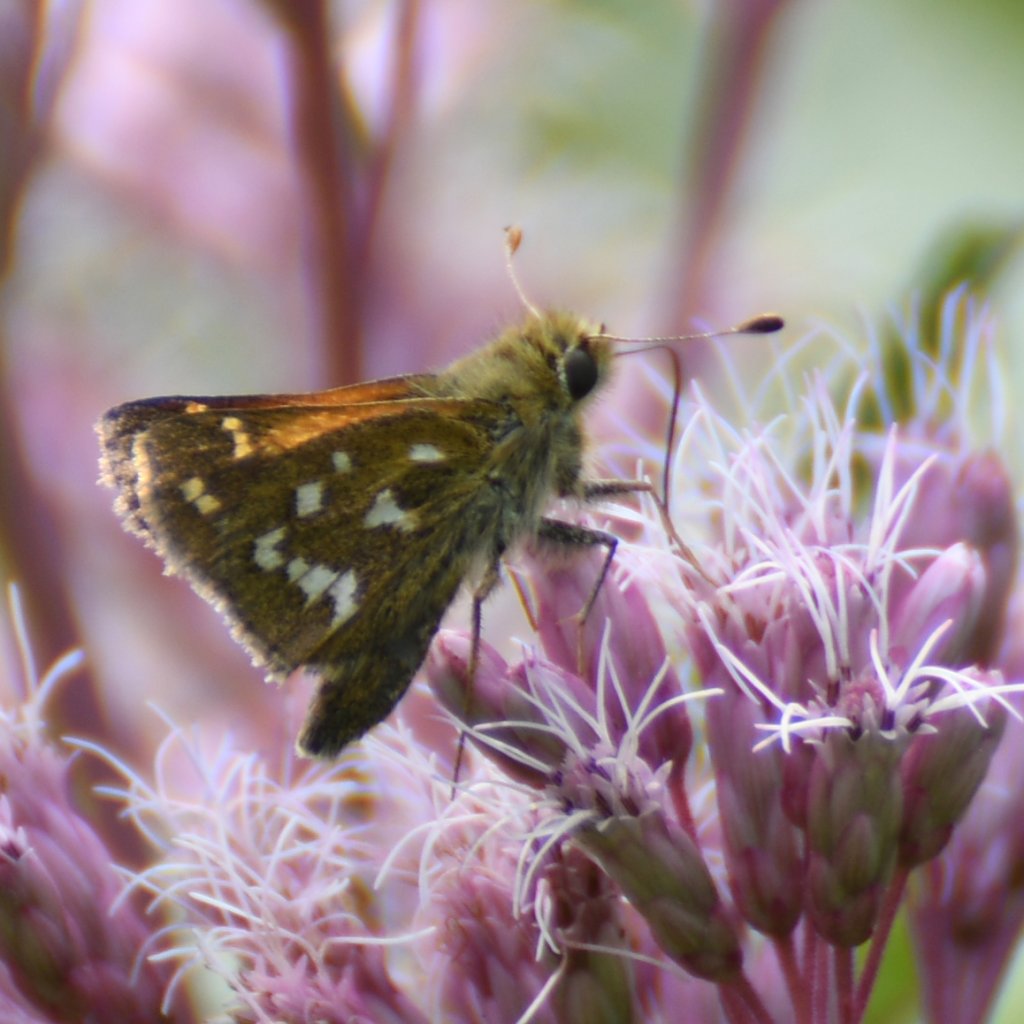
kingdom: Animalia
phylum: Arthropoda
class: Insecta
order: Lepidoptera
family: Hesperiidae
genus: Hesperia
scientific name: Hesperia comma
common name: Common Branded Skipper
